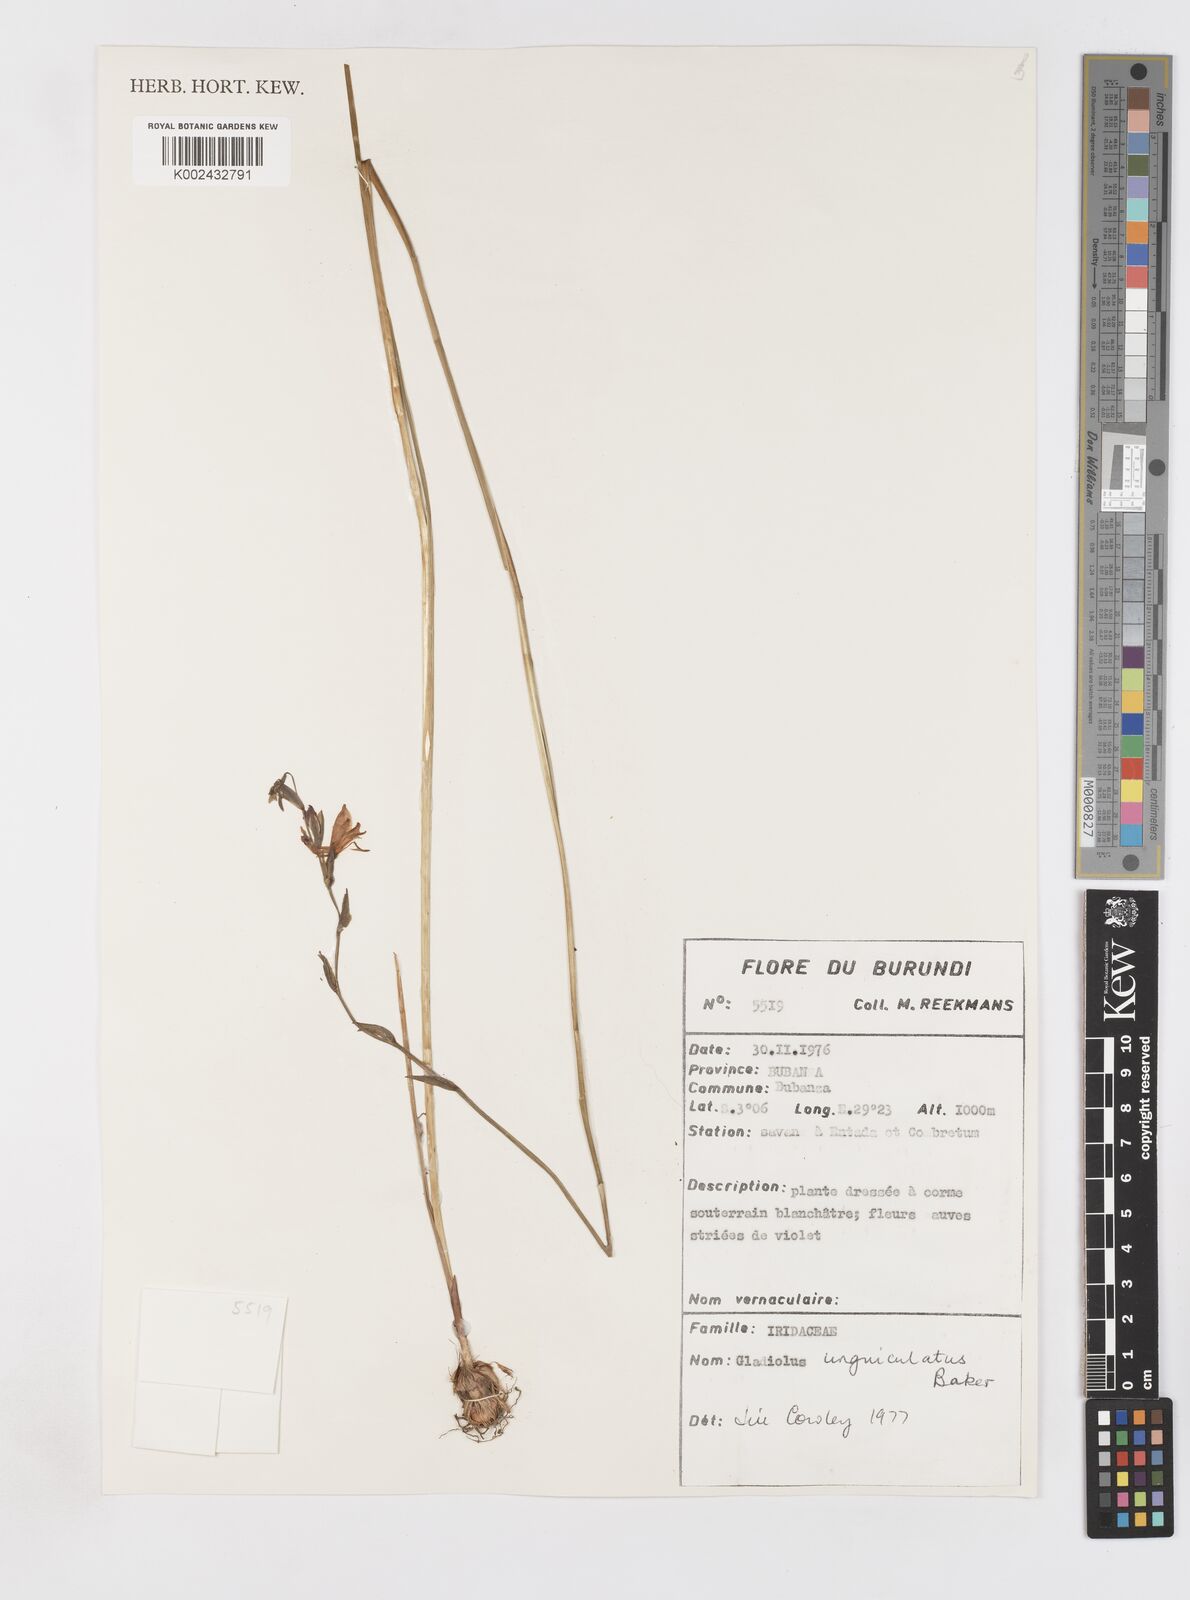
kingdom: Plantae
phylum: Tracheophyta
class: Liliopsida
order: Asparagales
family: Iridaceae
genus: Gladiolus
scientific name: Gladiolus unguiculatus
